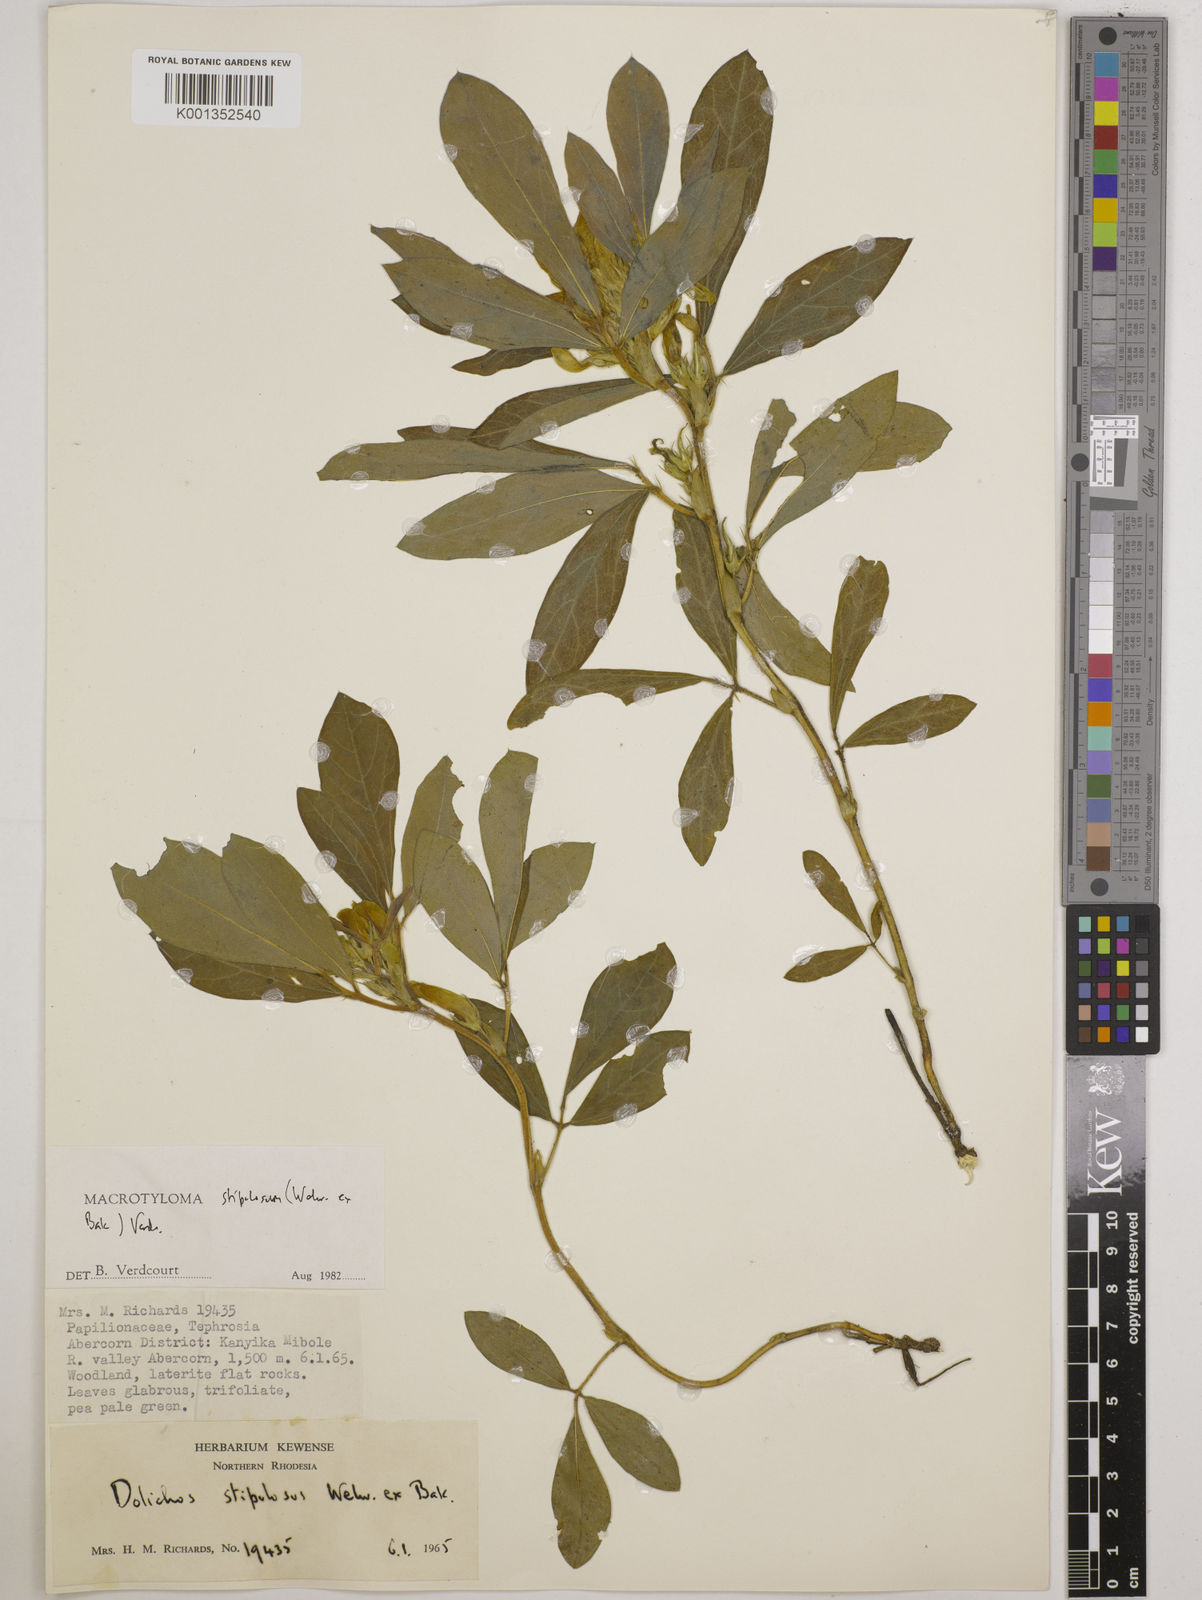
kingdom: Plantae
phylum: Tracheophyta
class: Magnoliopsida
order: Fabales
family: Fabaceae
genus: Macrotyloma
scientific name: Macrotyloma stipulosum
